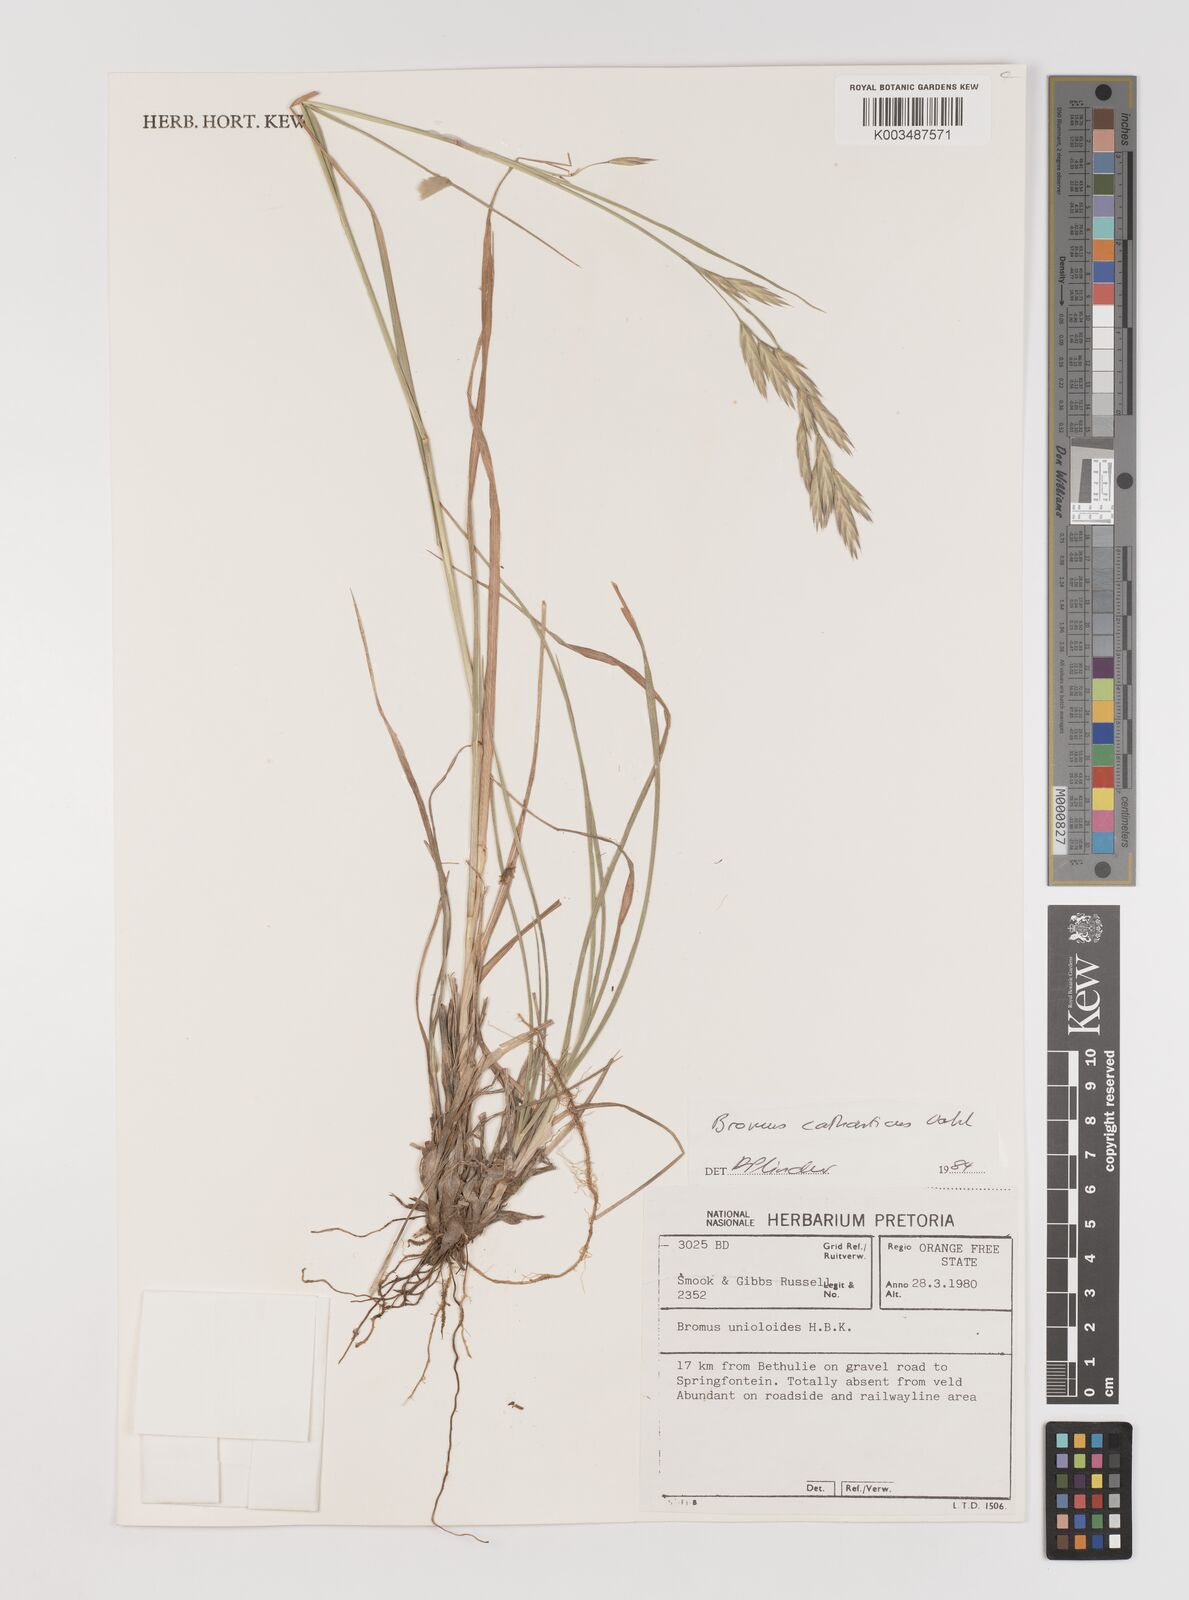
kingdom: Plantae
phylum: Tracheophyta
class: Liliopsida
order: Poales
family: Poaceae
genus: Bromus
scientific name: Bromus catharticus
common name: Rescuegrass
